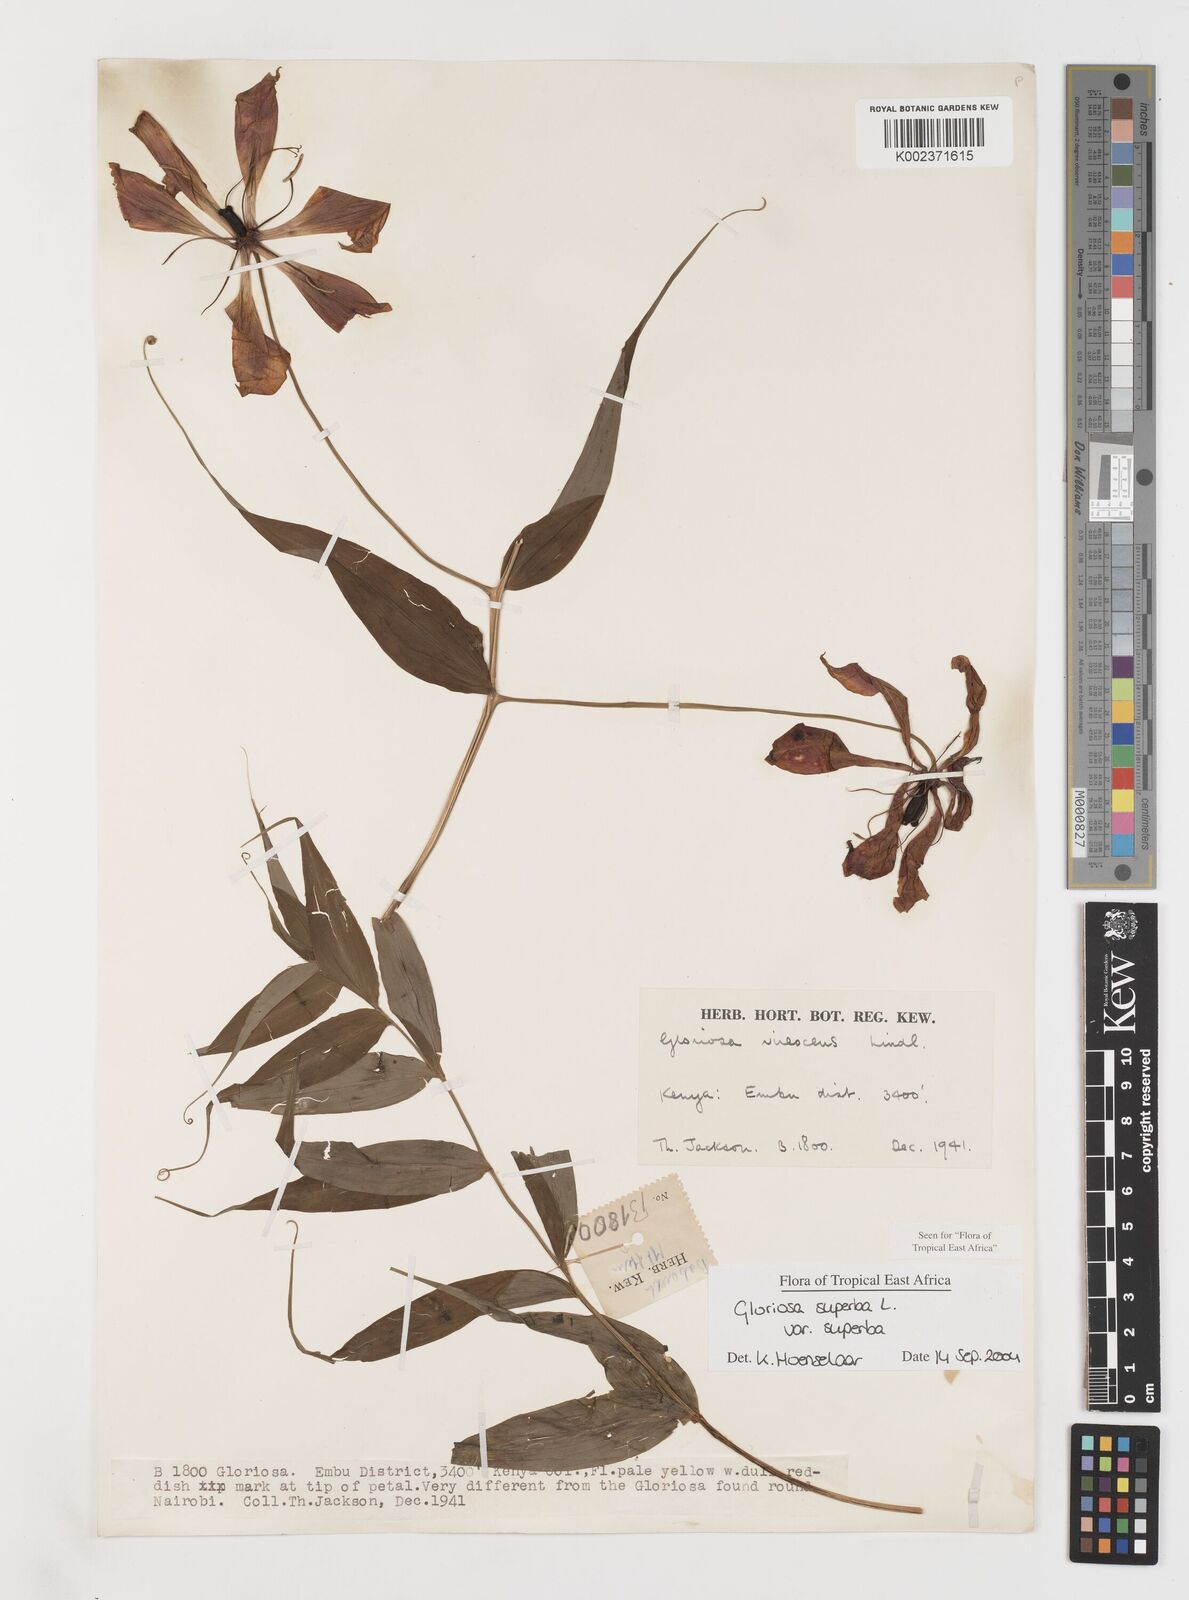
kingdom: Plantae
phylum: Tracheophyta
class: Liliopsida
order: Liliales
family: Colchicaceae
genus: Gloriosa
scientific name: Gloriosa simplex
